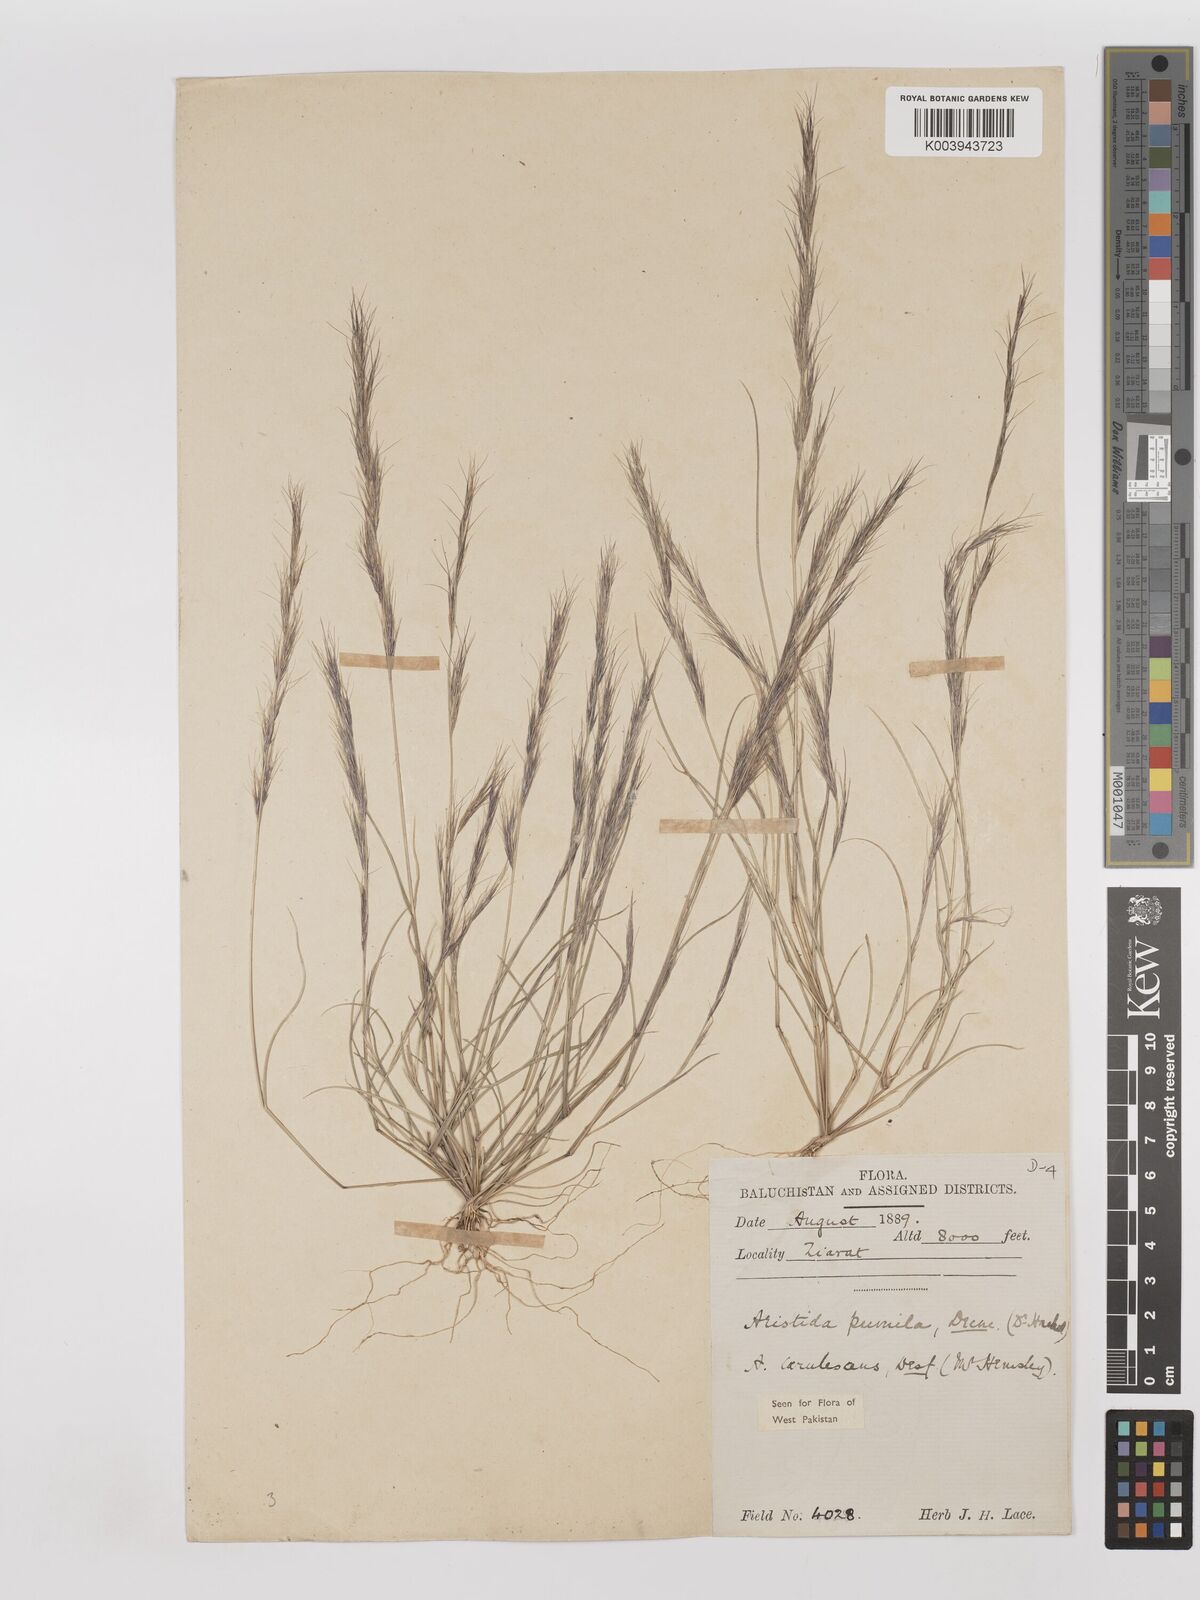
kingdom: Plantae
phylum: Tracheophyta
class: Liliopsida
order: Poales
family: Poaceae
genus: Aristida
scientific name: Aristida adscensionis
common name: Sixweeks threeawn
